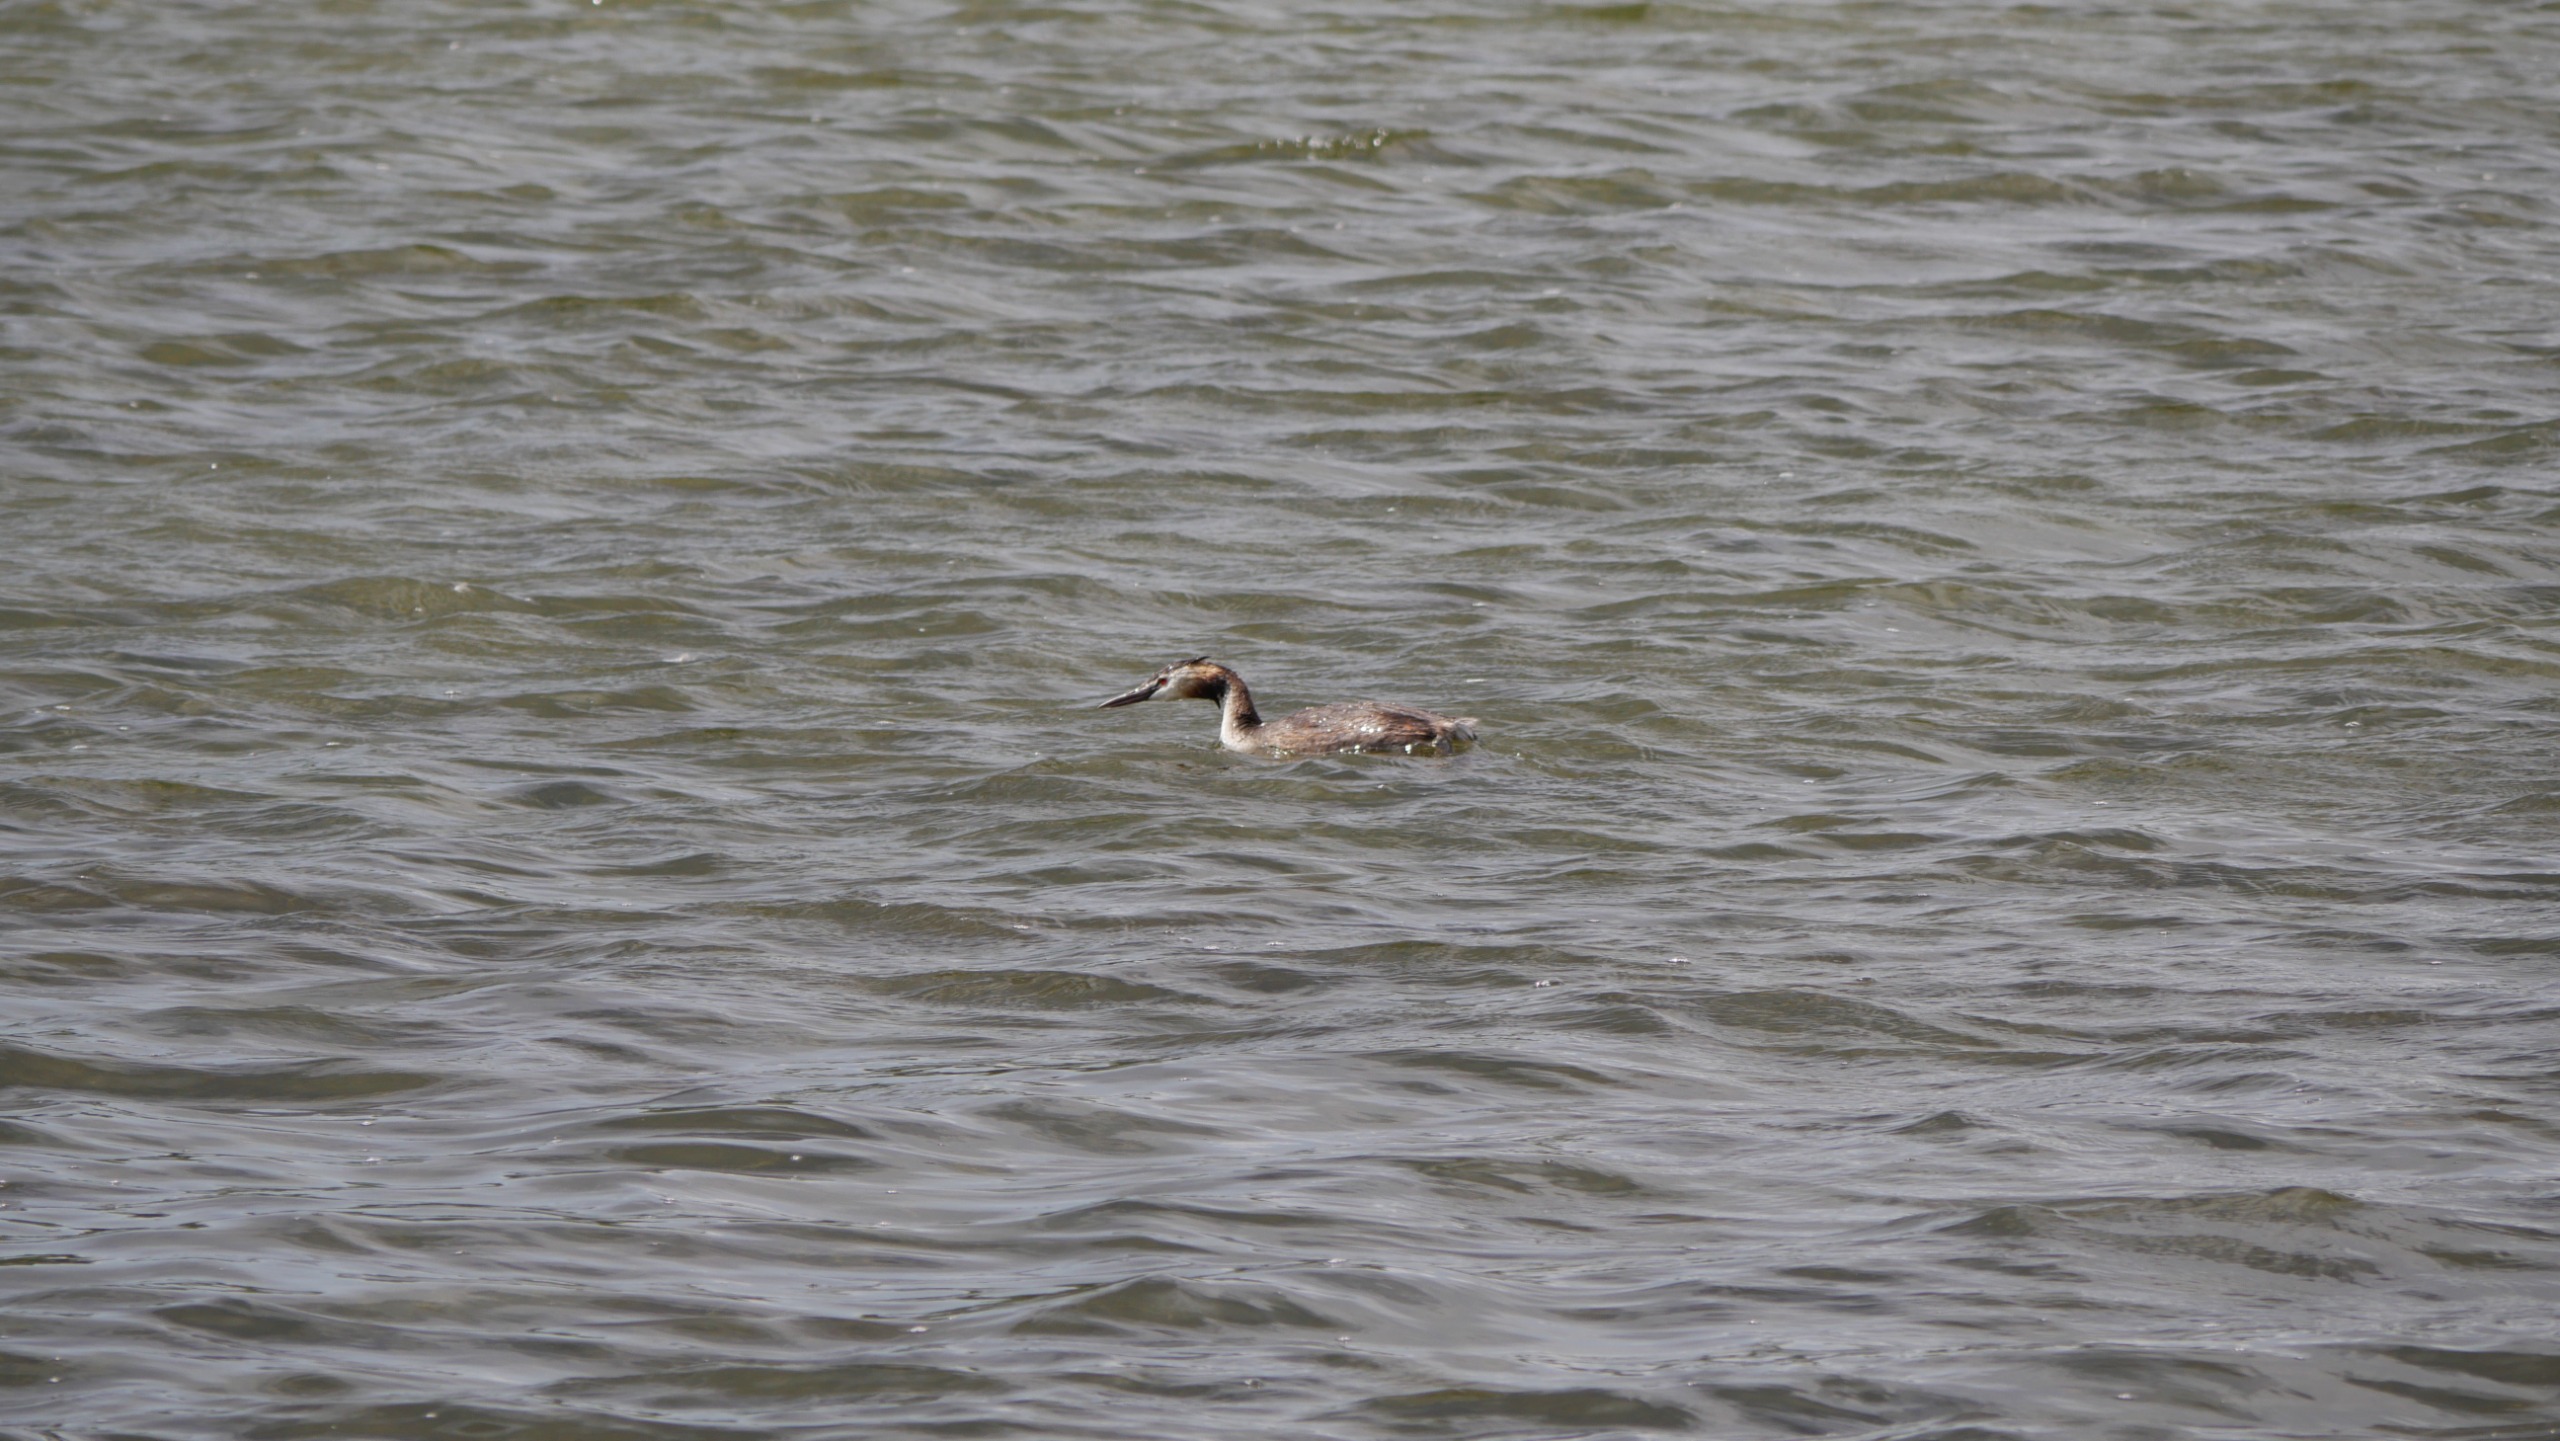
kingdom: Animalia
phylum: Chordata
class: Aves
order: Podicipediformes
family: Podicipedidae
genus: Podiceps
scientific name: Podiceps cristatus
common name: Toppet lappedykker
